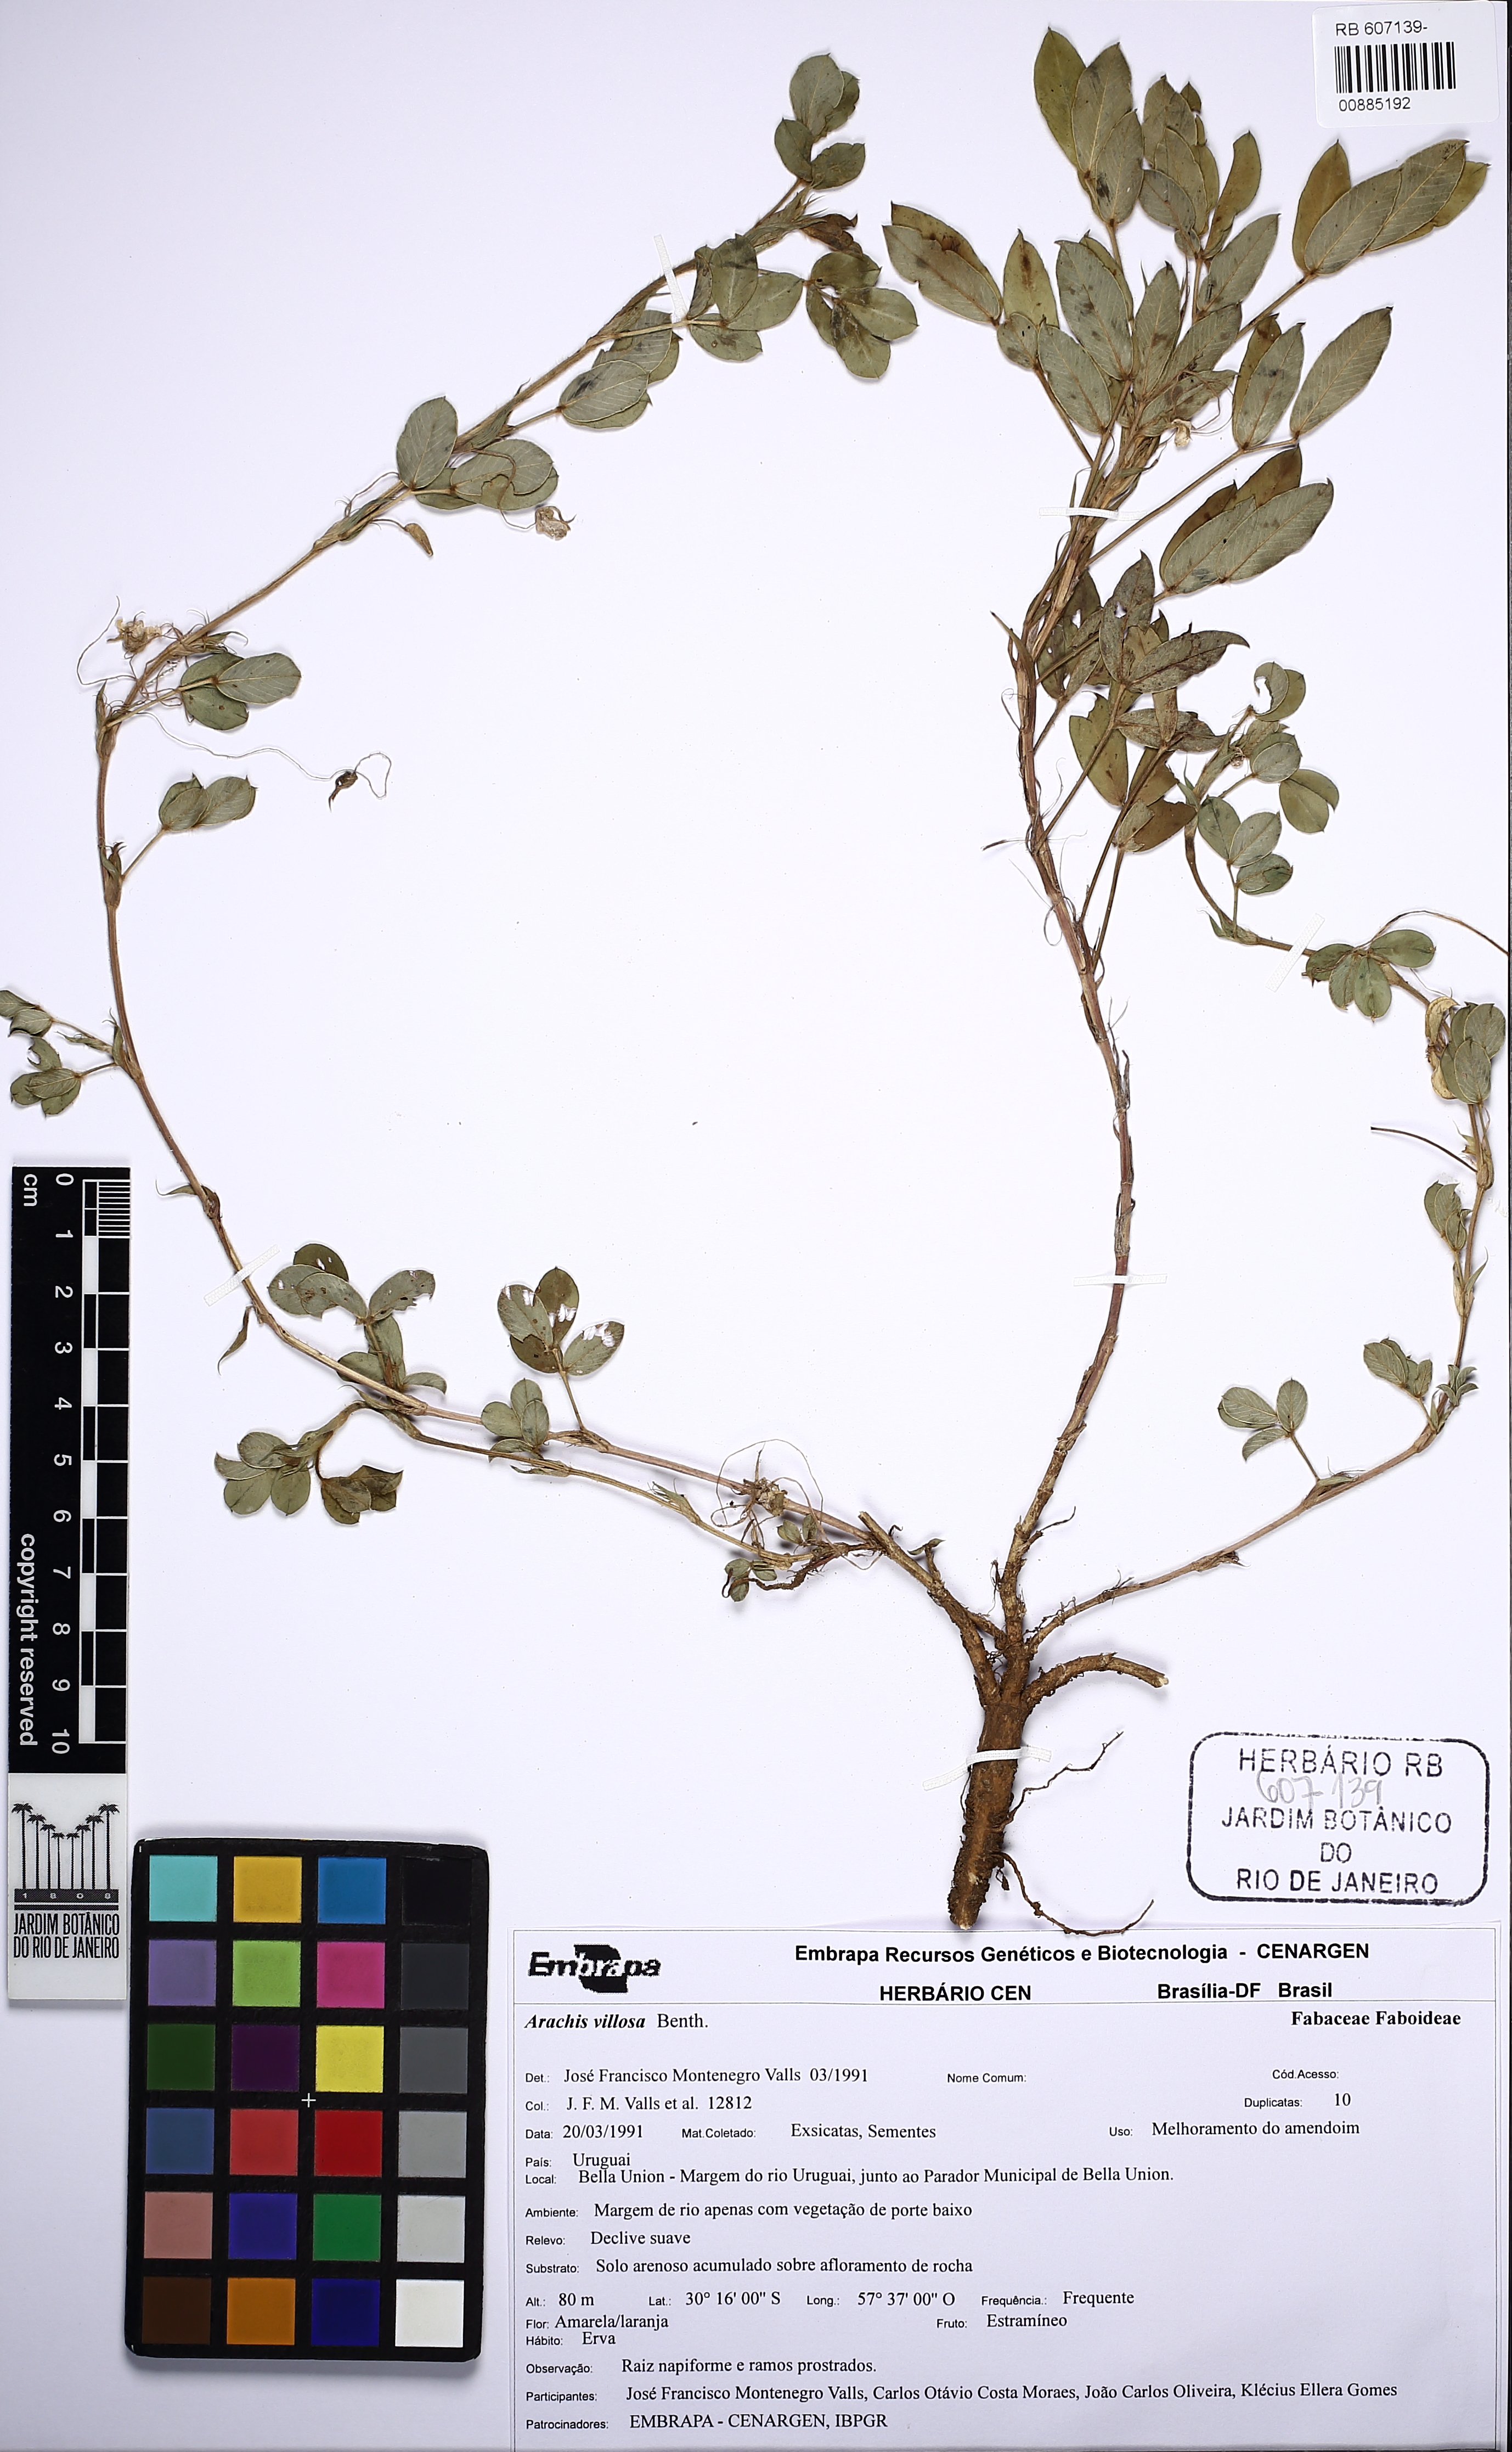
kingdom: Plantae
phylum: Tracheophyta
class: Magnoliopsida
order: Fabales
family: Fabaceae
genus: Arachis
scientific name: Arachis villosa
